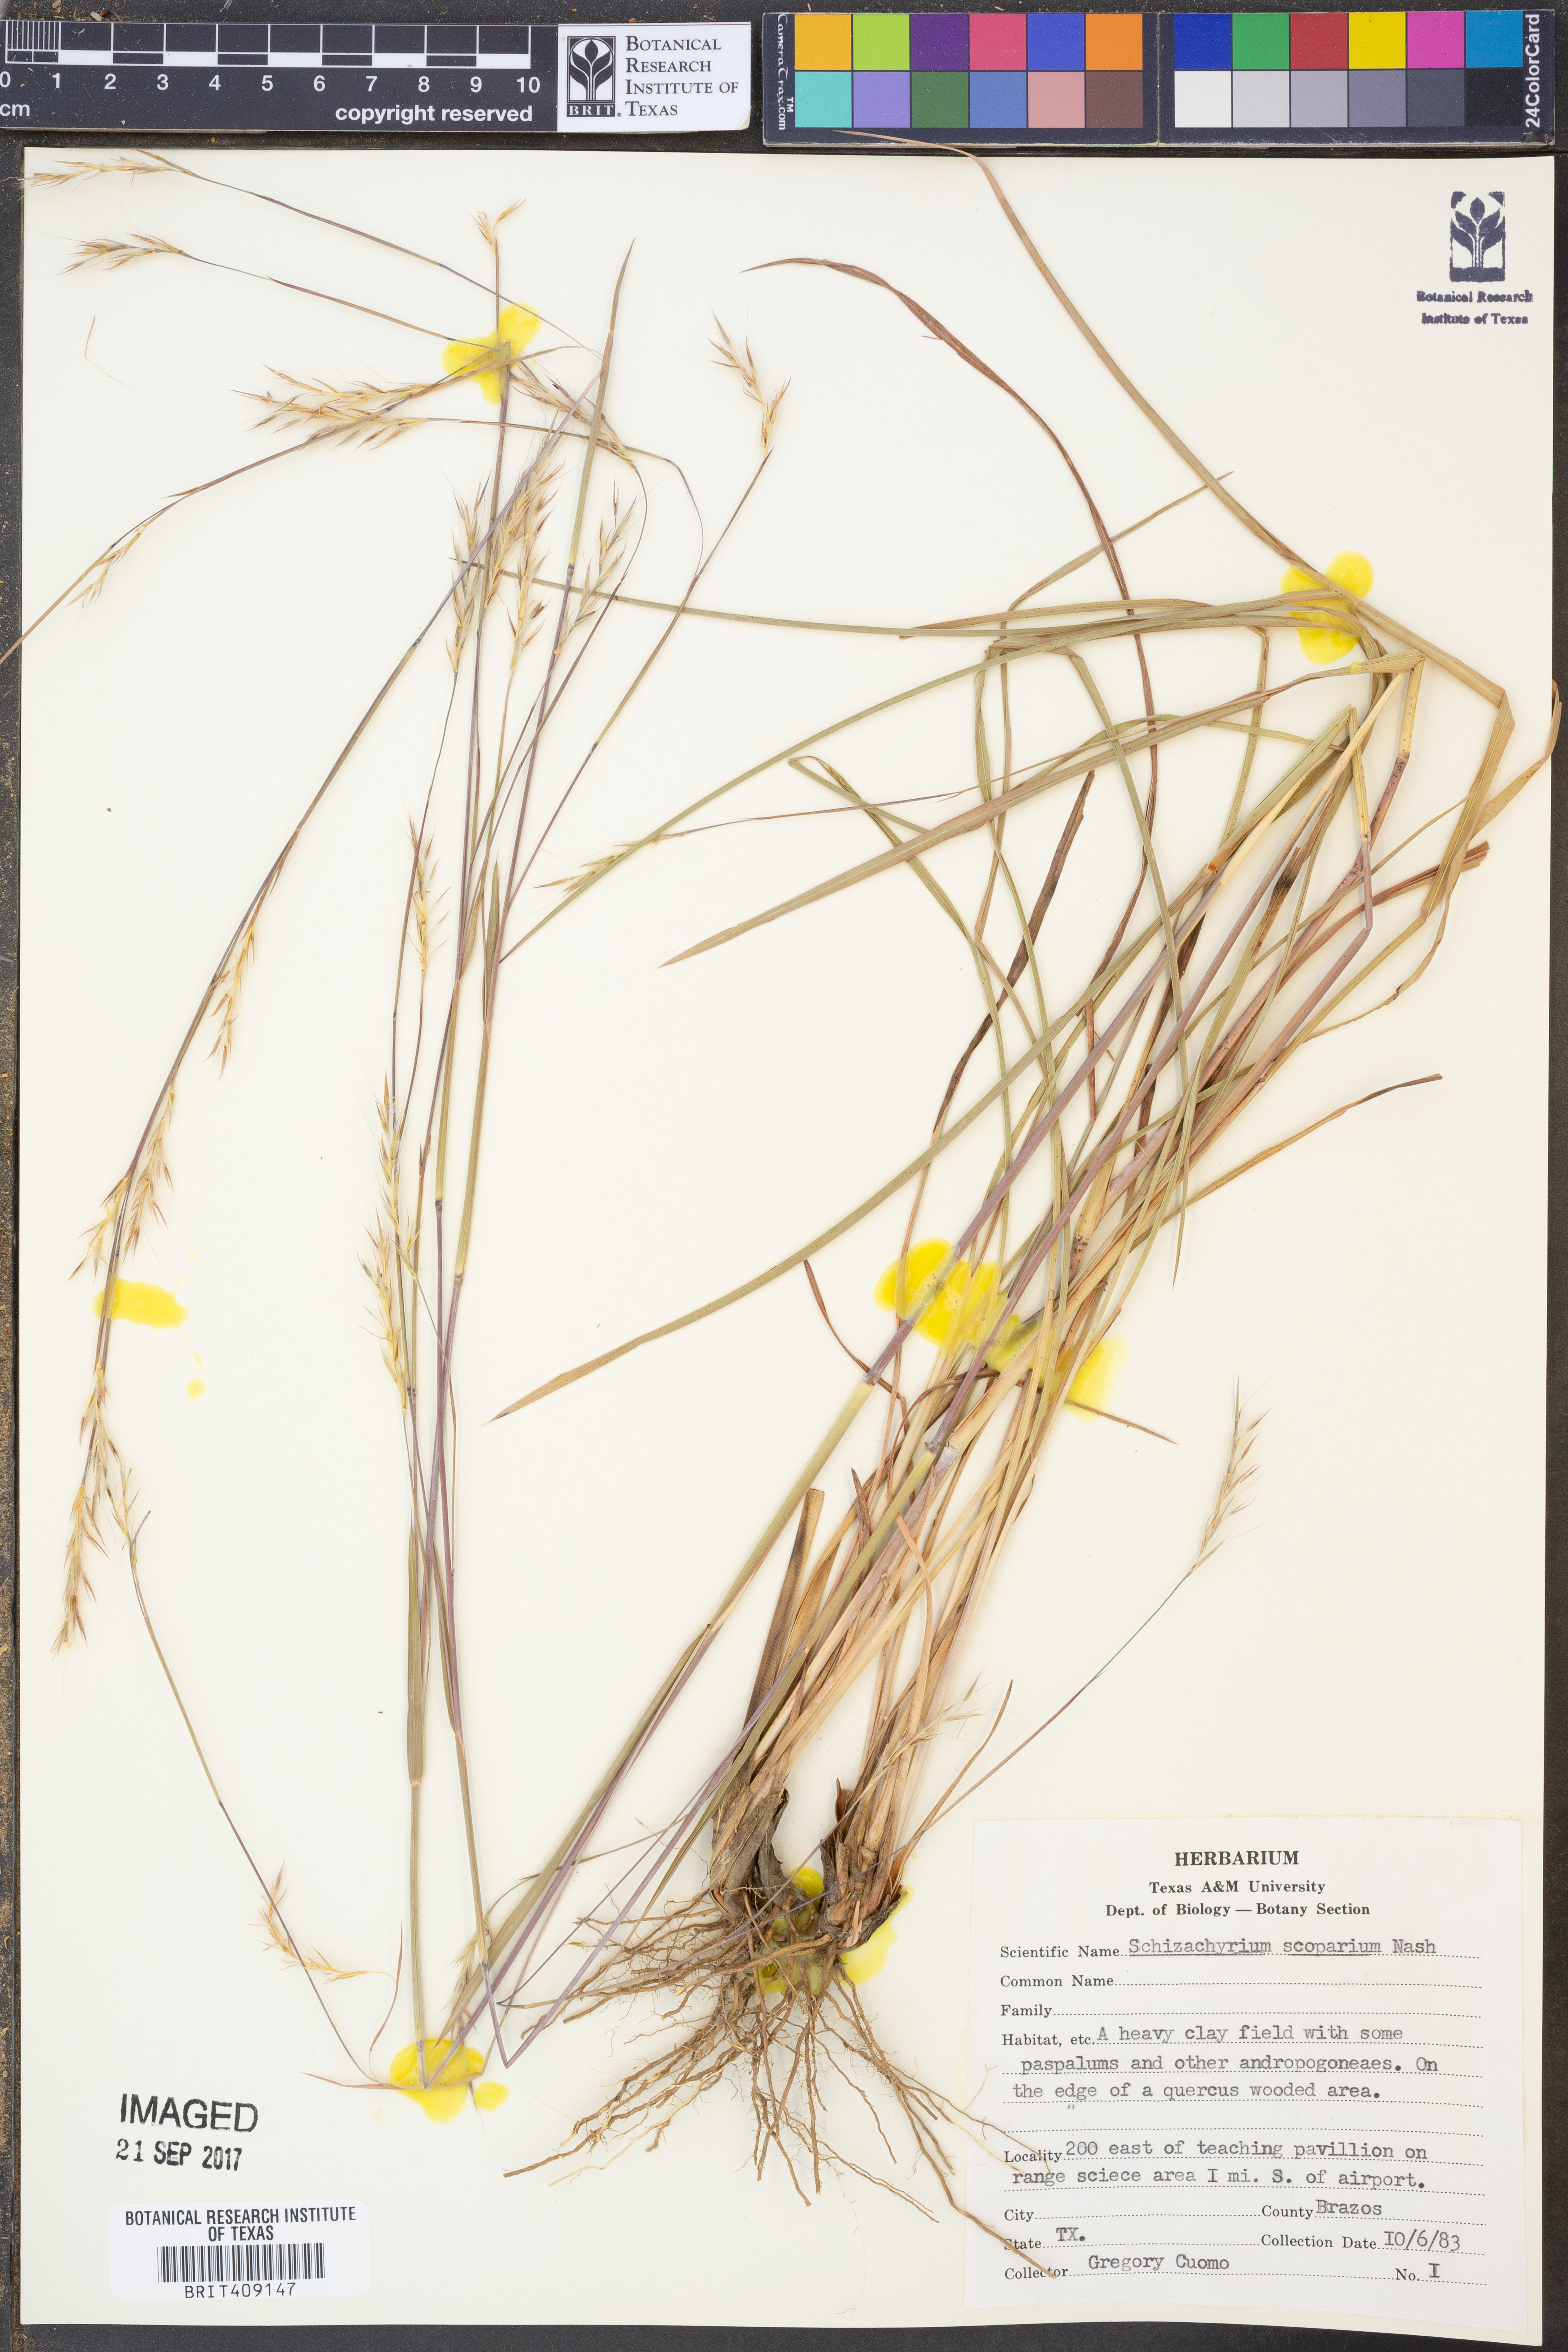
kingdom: Plantae
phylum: Tracheophyta
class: Liliopsida
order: Poales
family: Poaceae
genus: Schizachyrium
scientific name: Schizachyrium scoparium
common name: Little bluestem
